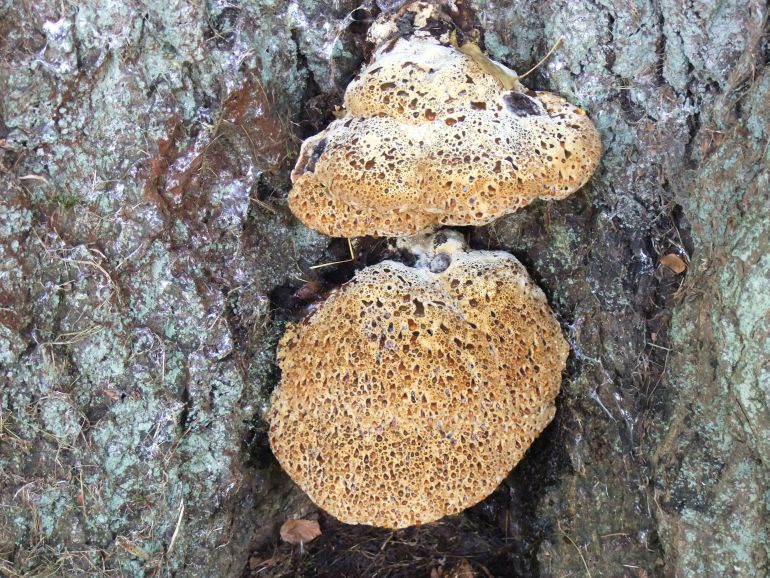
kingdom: Fungi
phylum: Basidiomycota
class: Agaricomycetes
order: Hymenochaetales
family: Hymenochaetaceae
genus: Pseudoinonotus
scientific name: Pseudoinonotus dryadeus
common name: ege-spejlporesvamp
